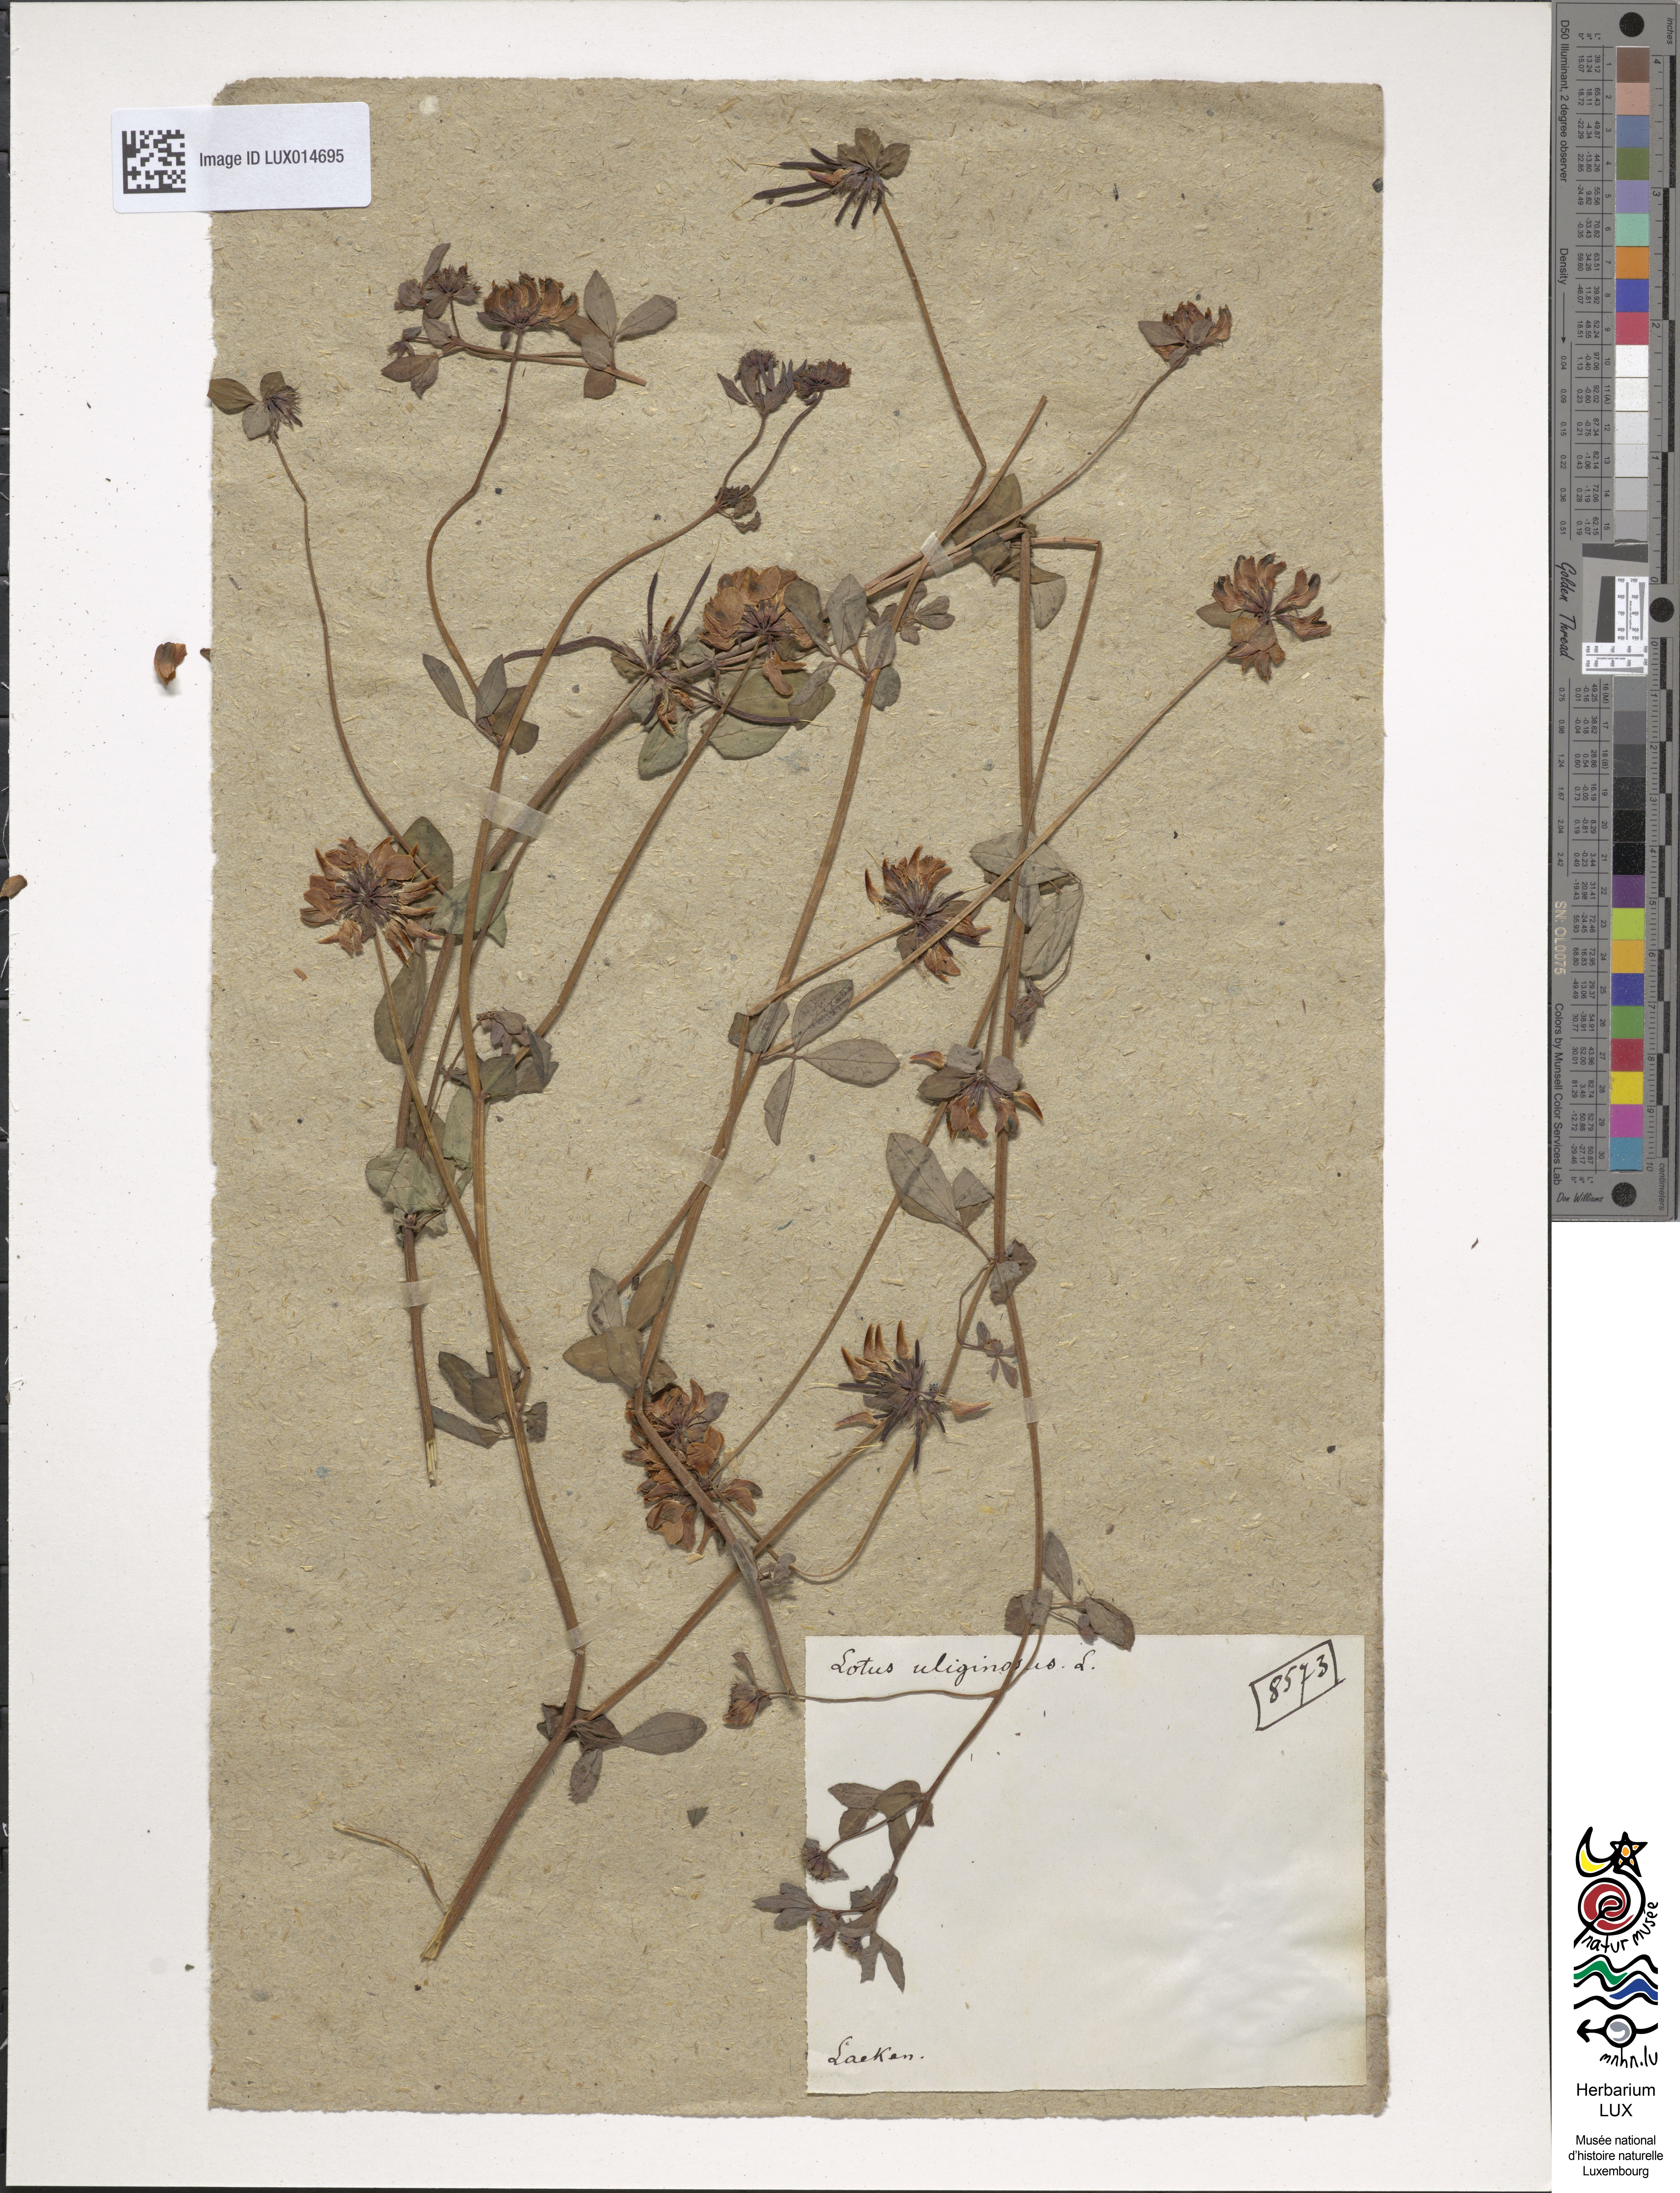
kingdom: Plantae
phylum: Tracheophyta
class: Magnoliopsida
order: Fabales
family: Fabaceae
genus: Lotus
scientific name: Lotus pedunculatus
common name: Greater birdsfoot-trefoil
